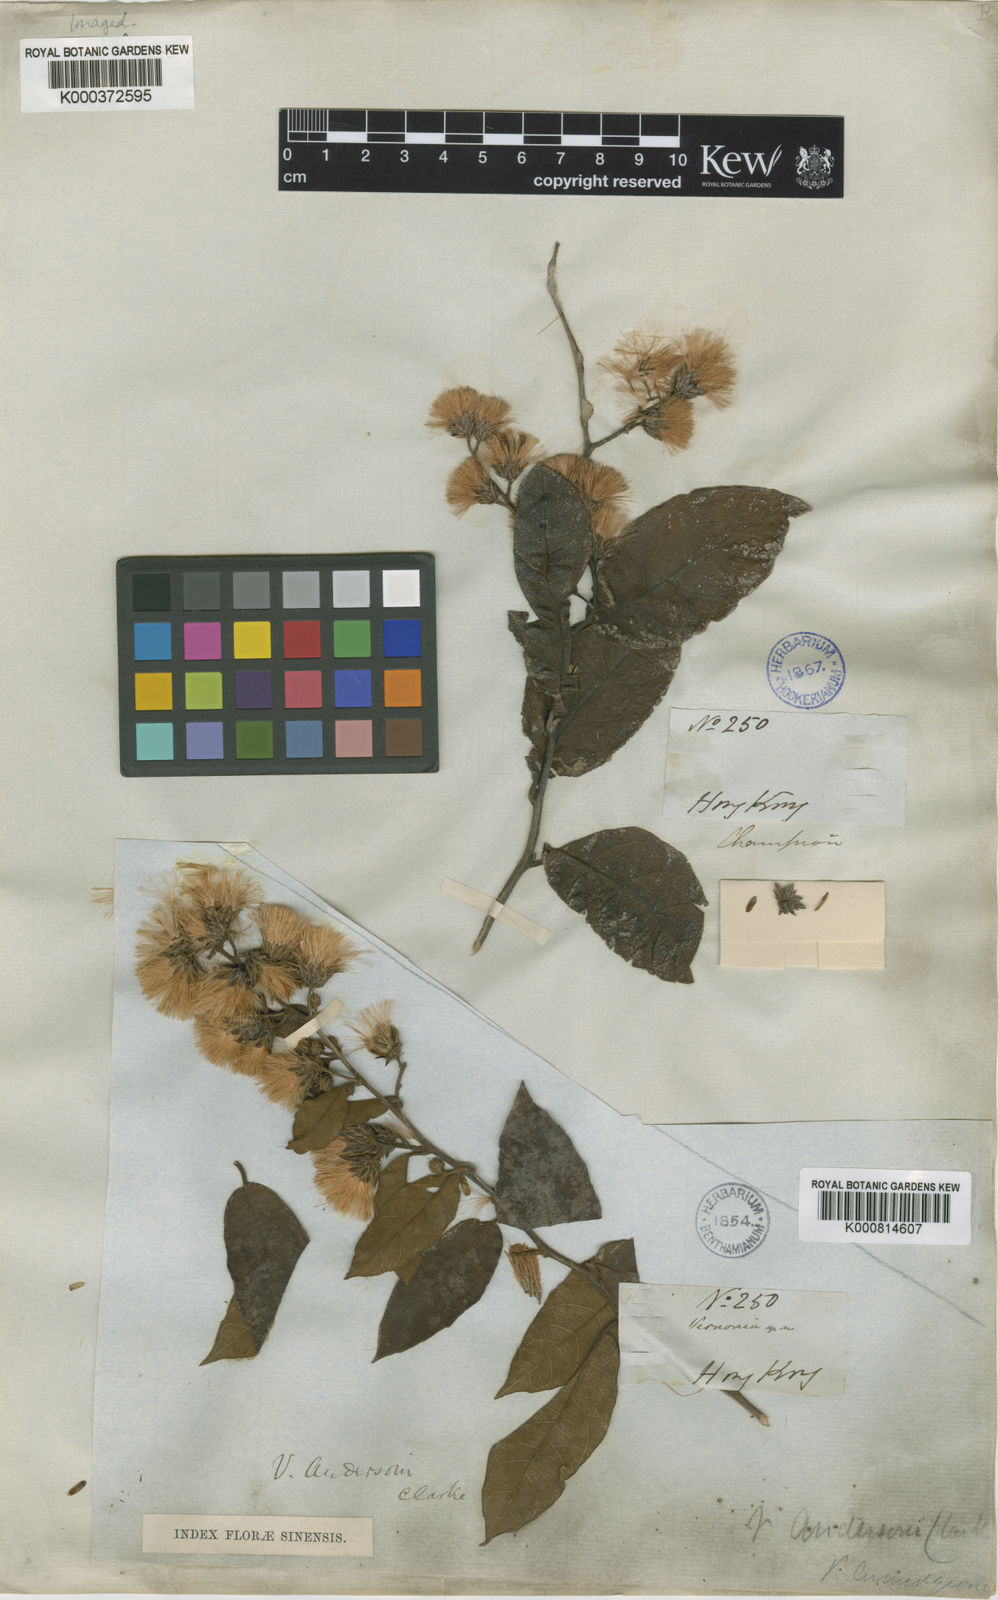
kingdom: Plantae
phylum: Tracheophyta
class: Magnoliopsida
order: Asterales
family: Asteraceae
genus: Decaneuropsis
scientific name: Decaneuropsis cumingiana
